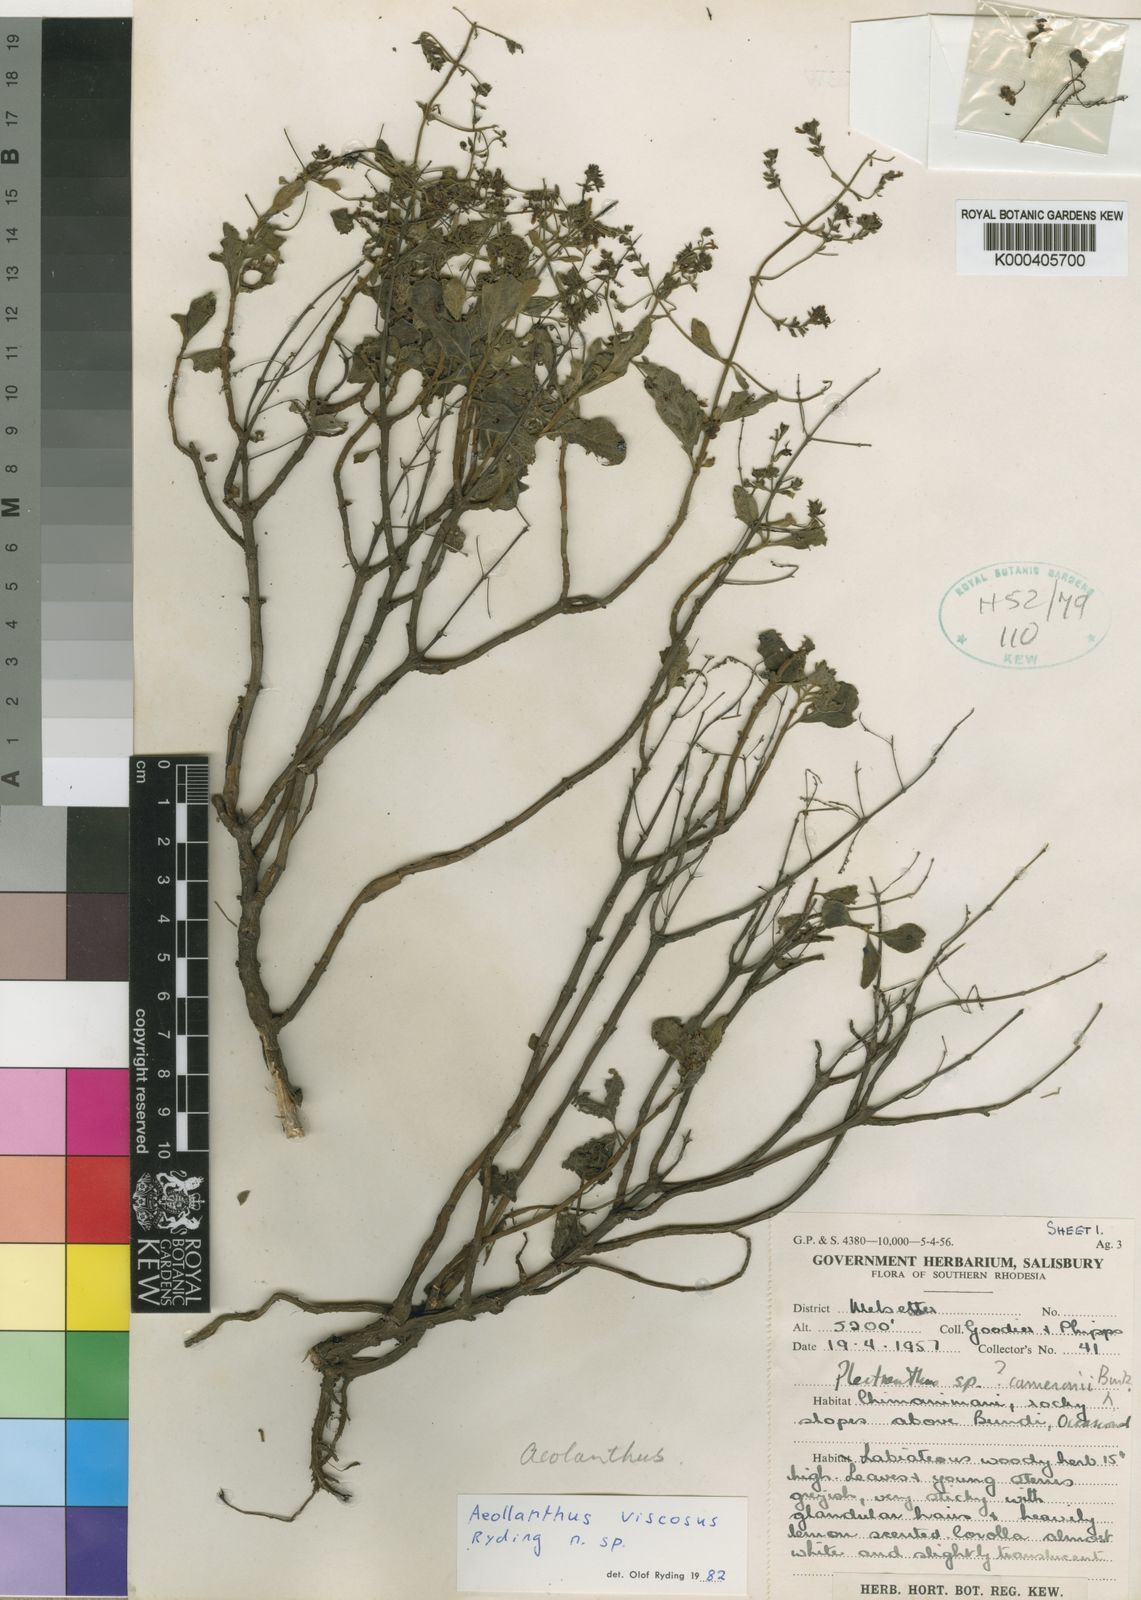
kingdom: Plantae
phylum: Tracheophyta
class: Magnoliopsida
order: Lamiales
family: Lamiaceae
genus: Aeollanthus
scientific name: Aeollanthus viscosus
